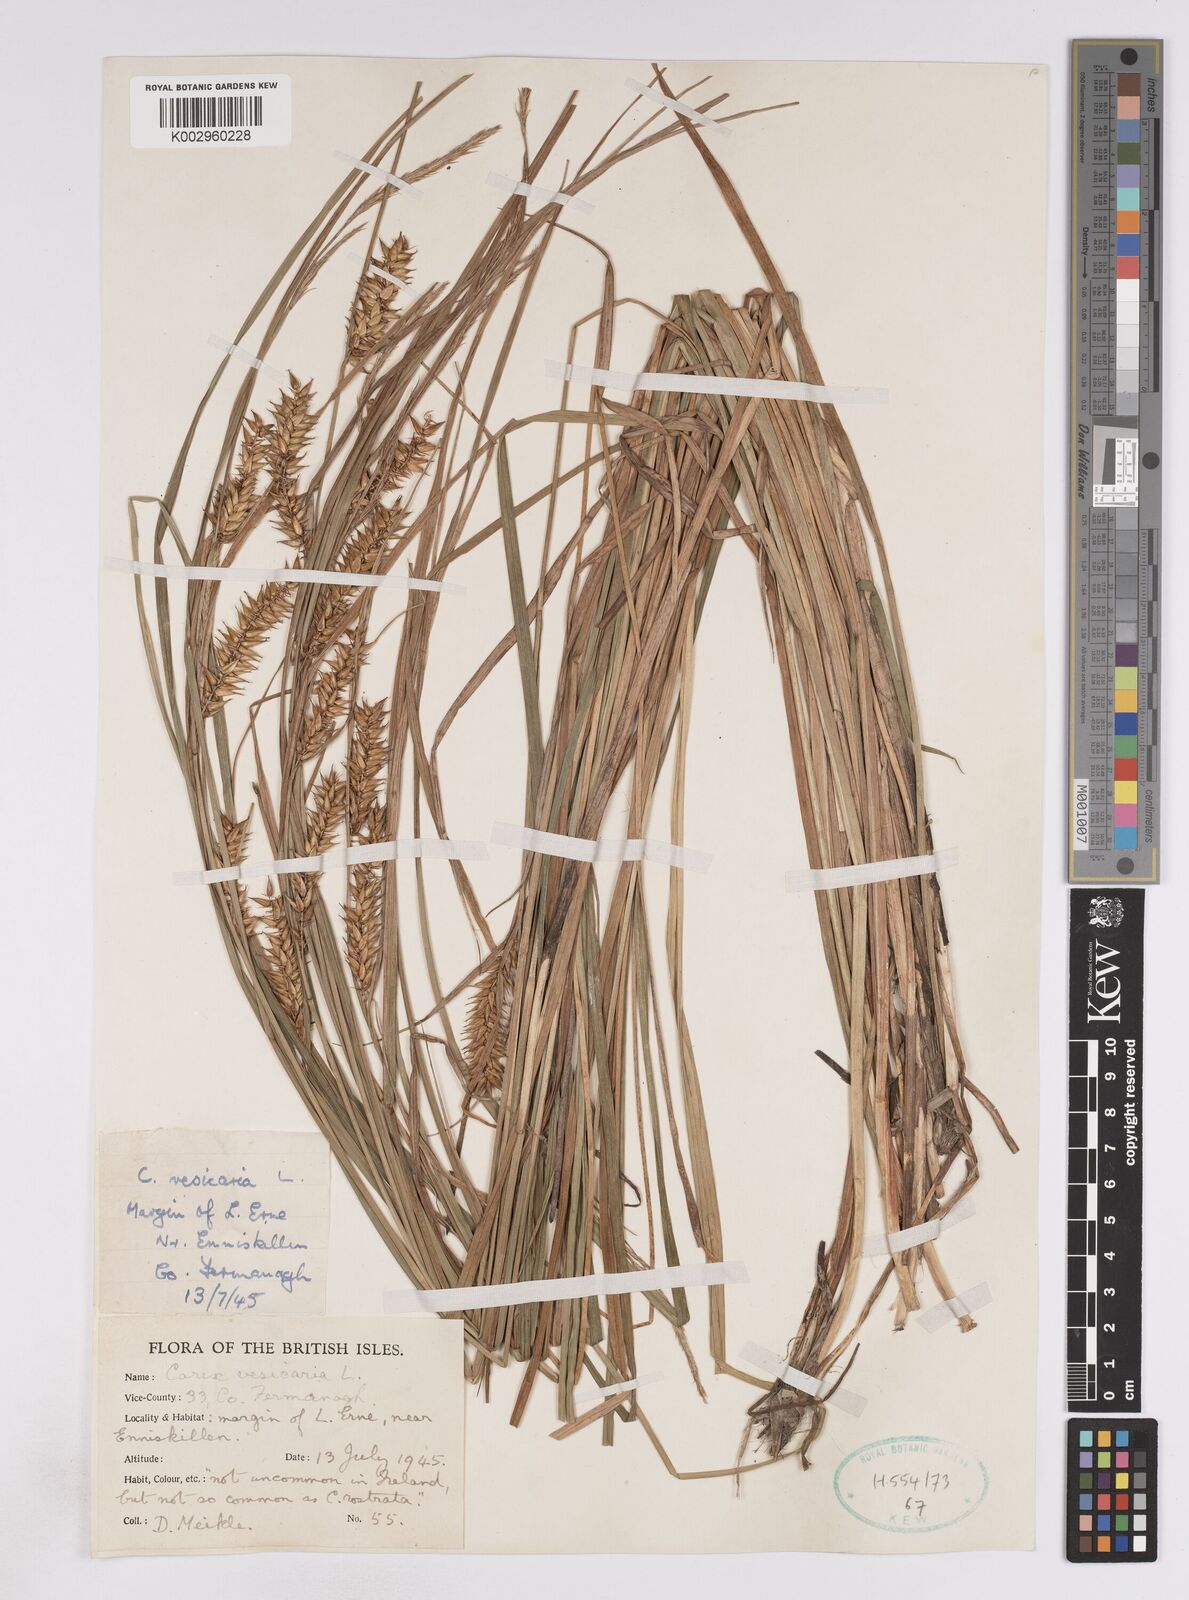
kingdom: Plantae
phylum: Tracheophyta
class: Liliopsida
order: Poales
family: Cyperaceae
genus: Carex
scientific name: Carex vesicaria
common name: Bladder-sedge
